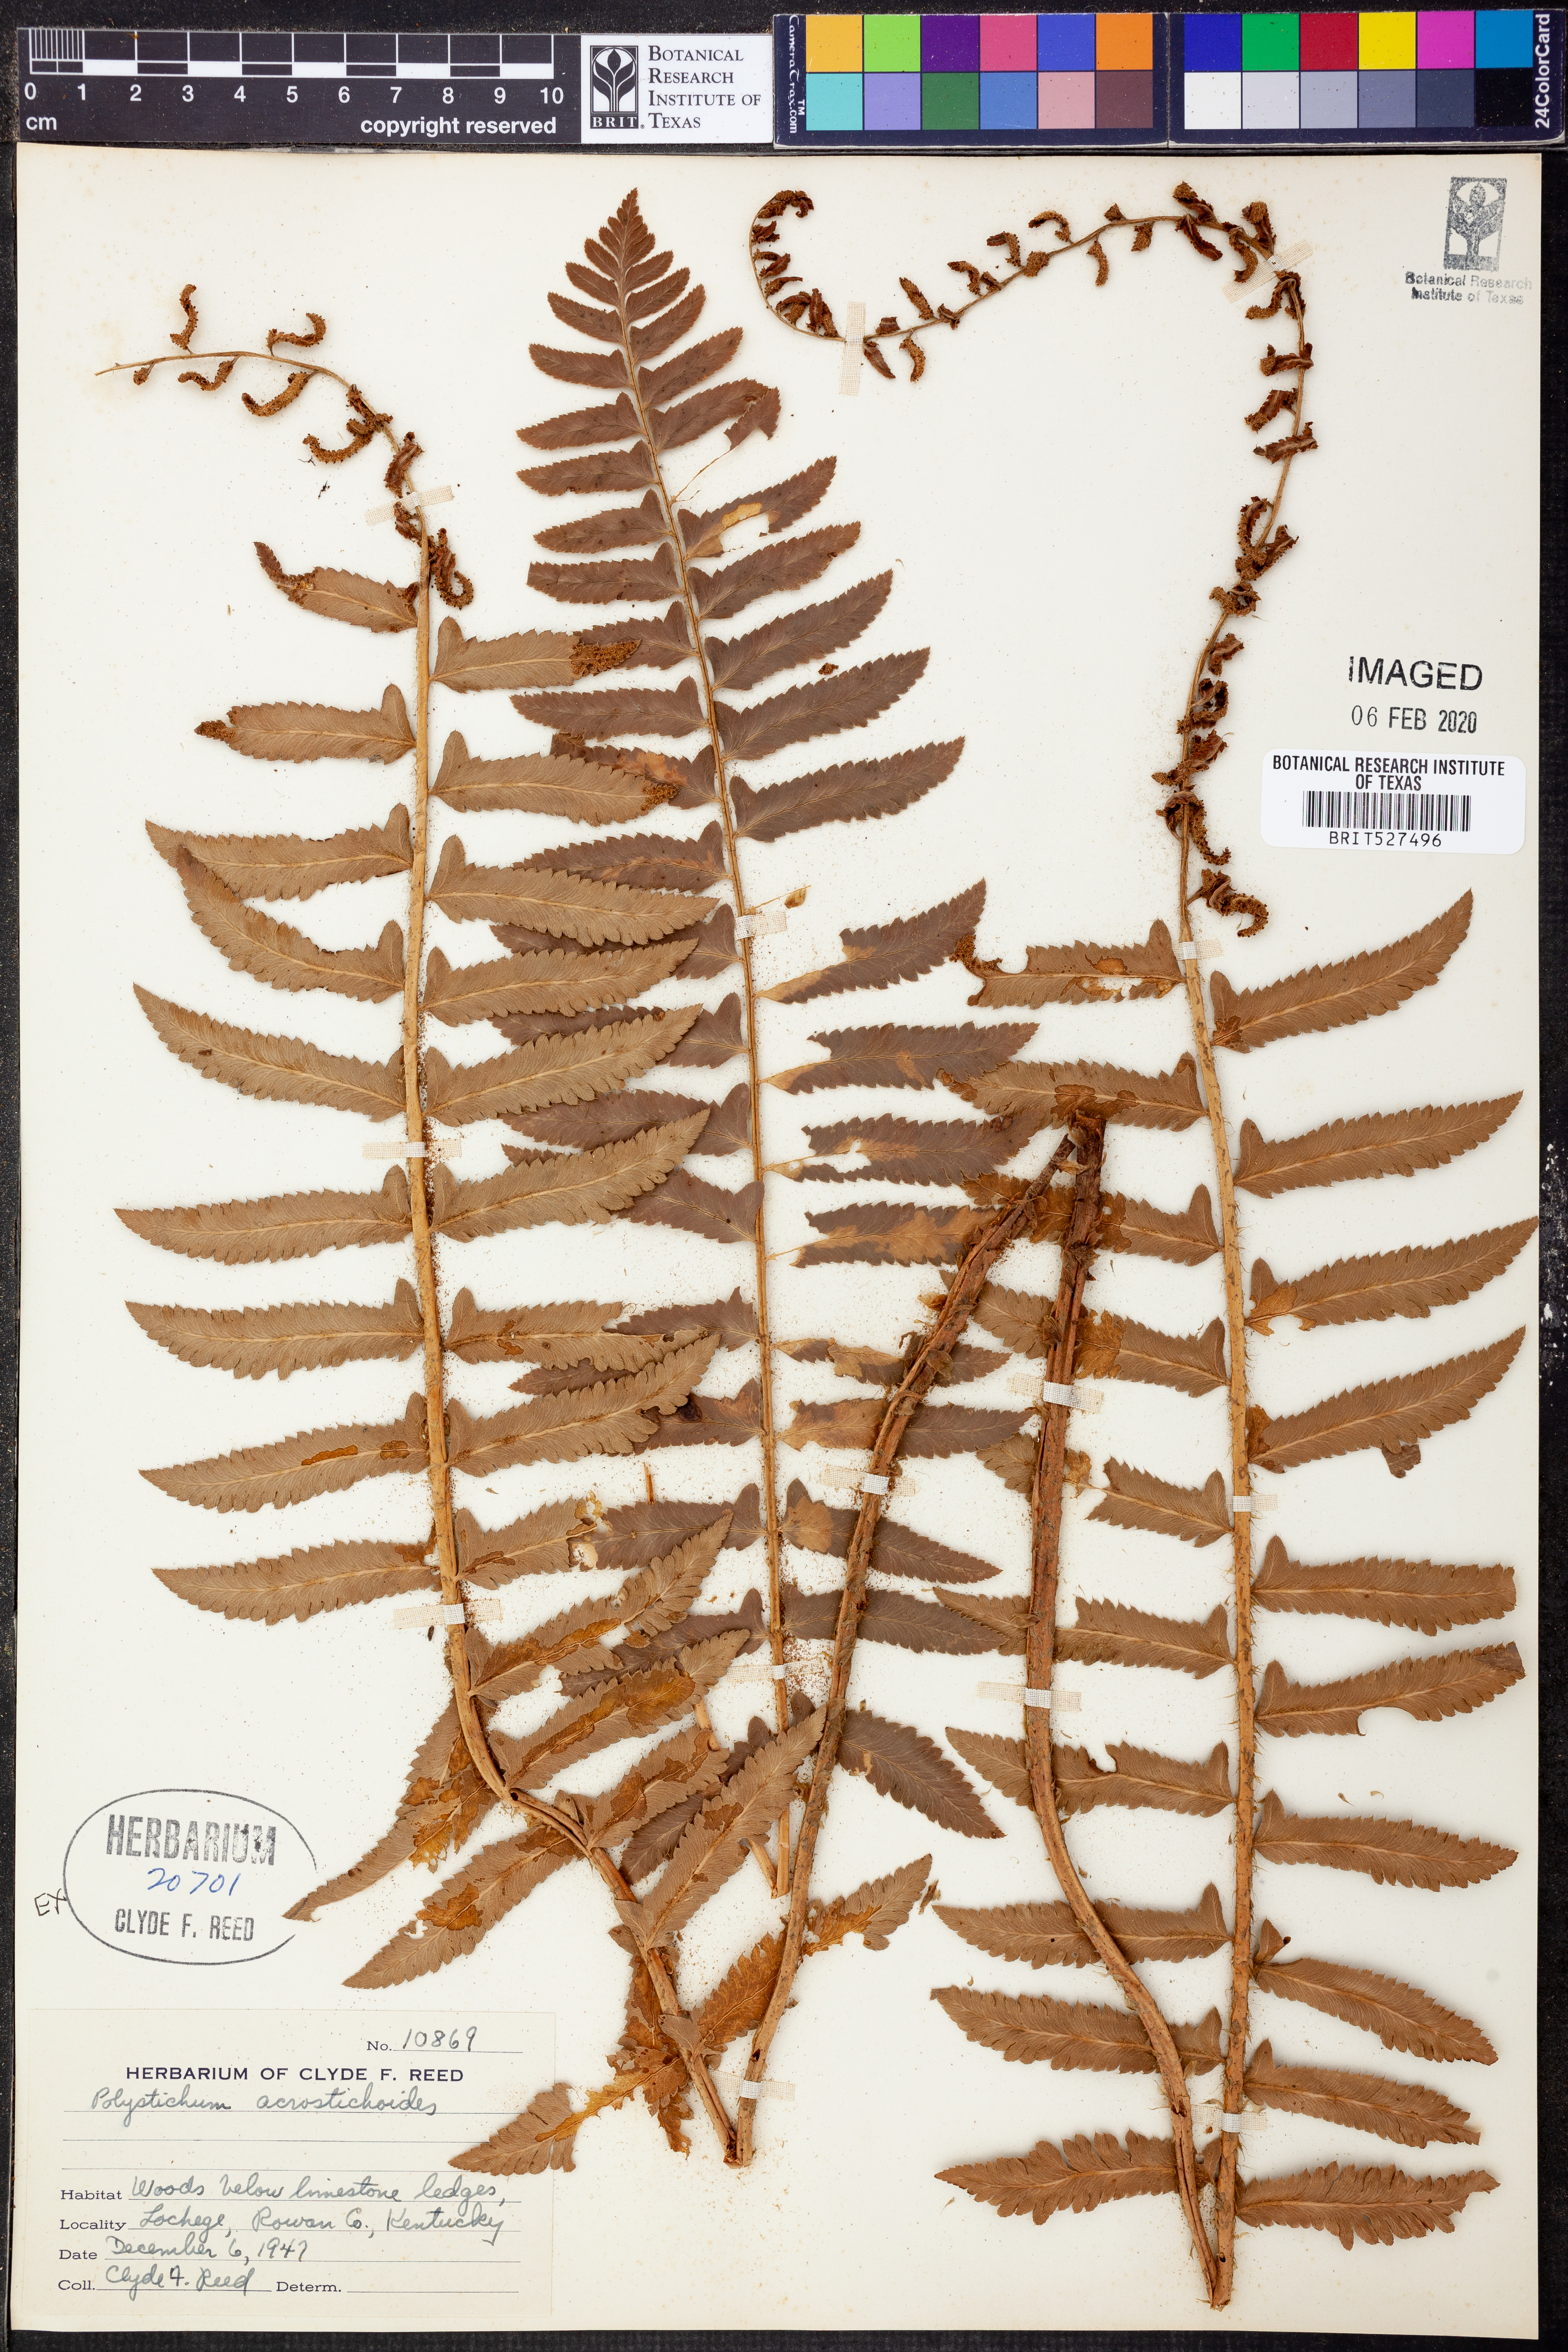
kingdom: Plantae
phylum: Tracheophyta
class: Polypodiopsida
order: Polypodiales
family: Dryopteridaceae
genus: Polystichum
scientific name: Polystichum acrostichoides
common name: Christmas fern
